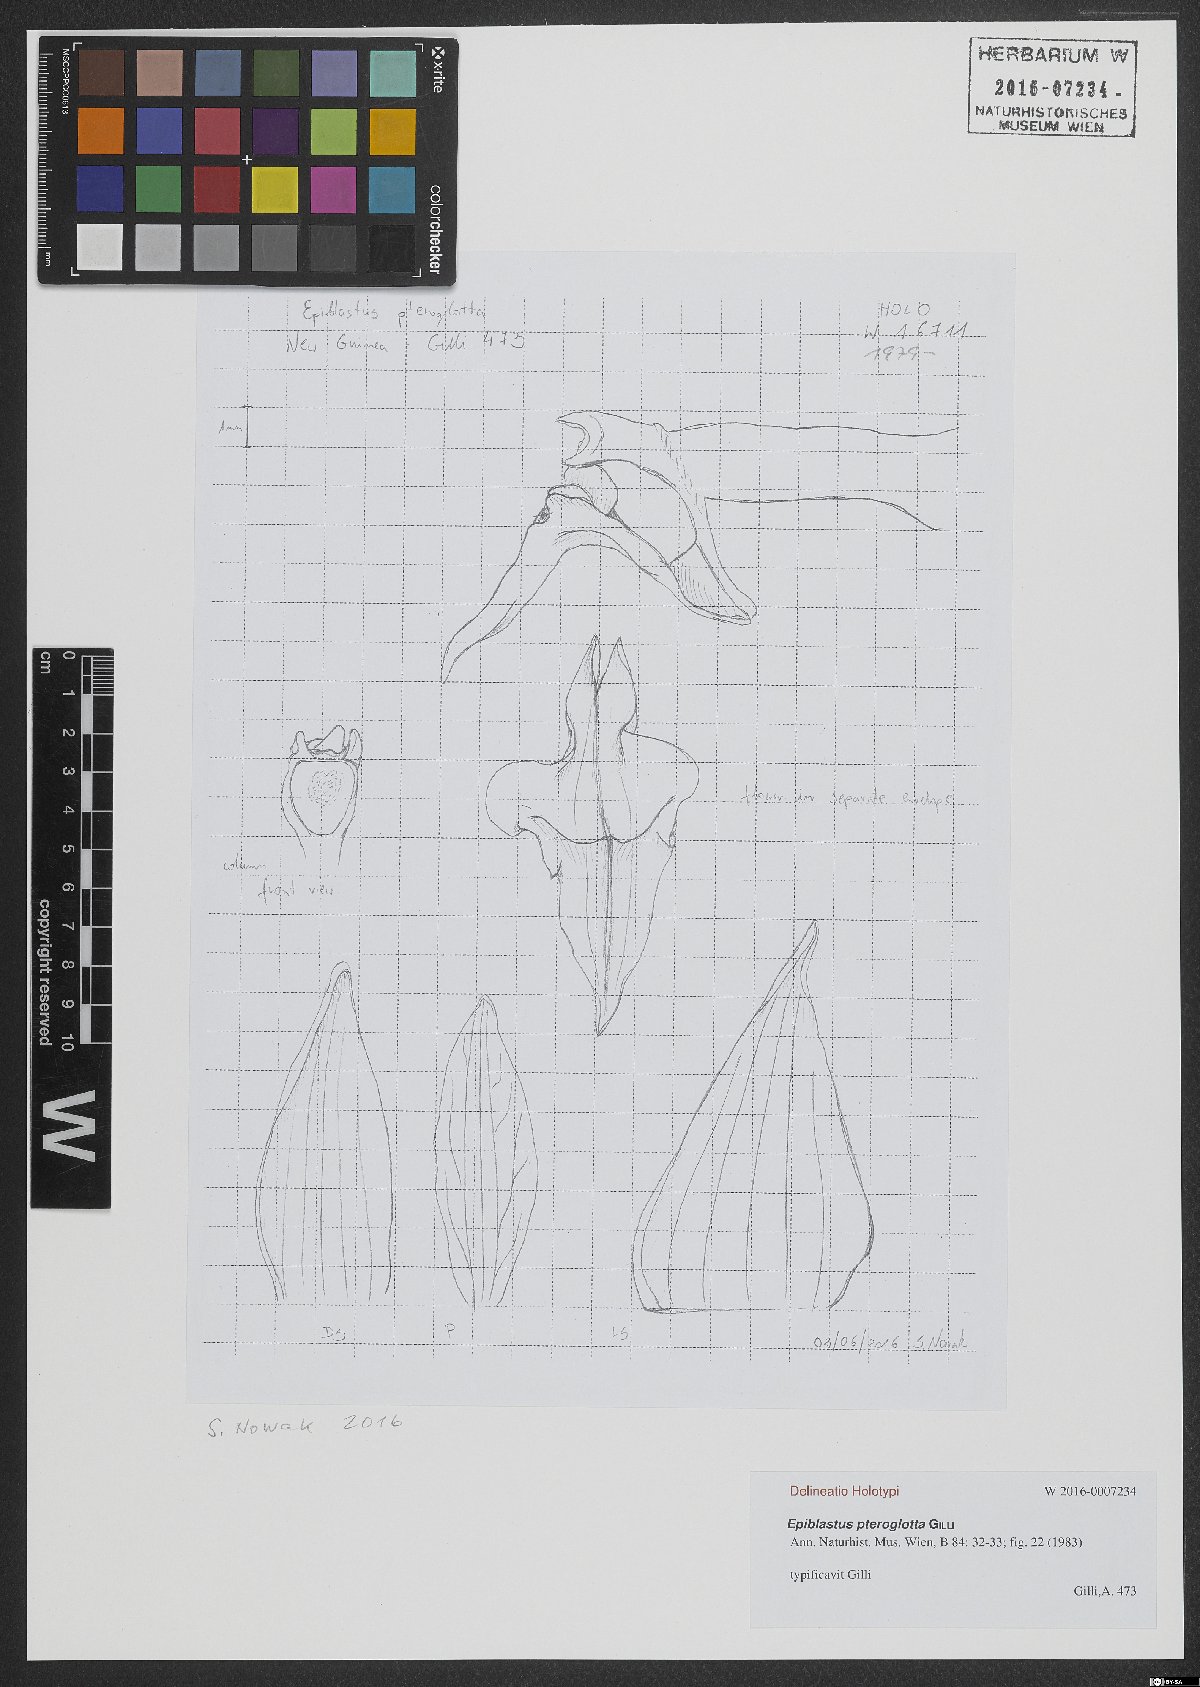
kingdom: Plantae
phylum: Tracheophyta
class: Liliopsida
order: Asparagales
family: Orchidaceae
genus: Epiblastus
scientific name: Epiblastus pteroglotta
